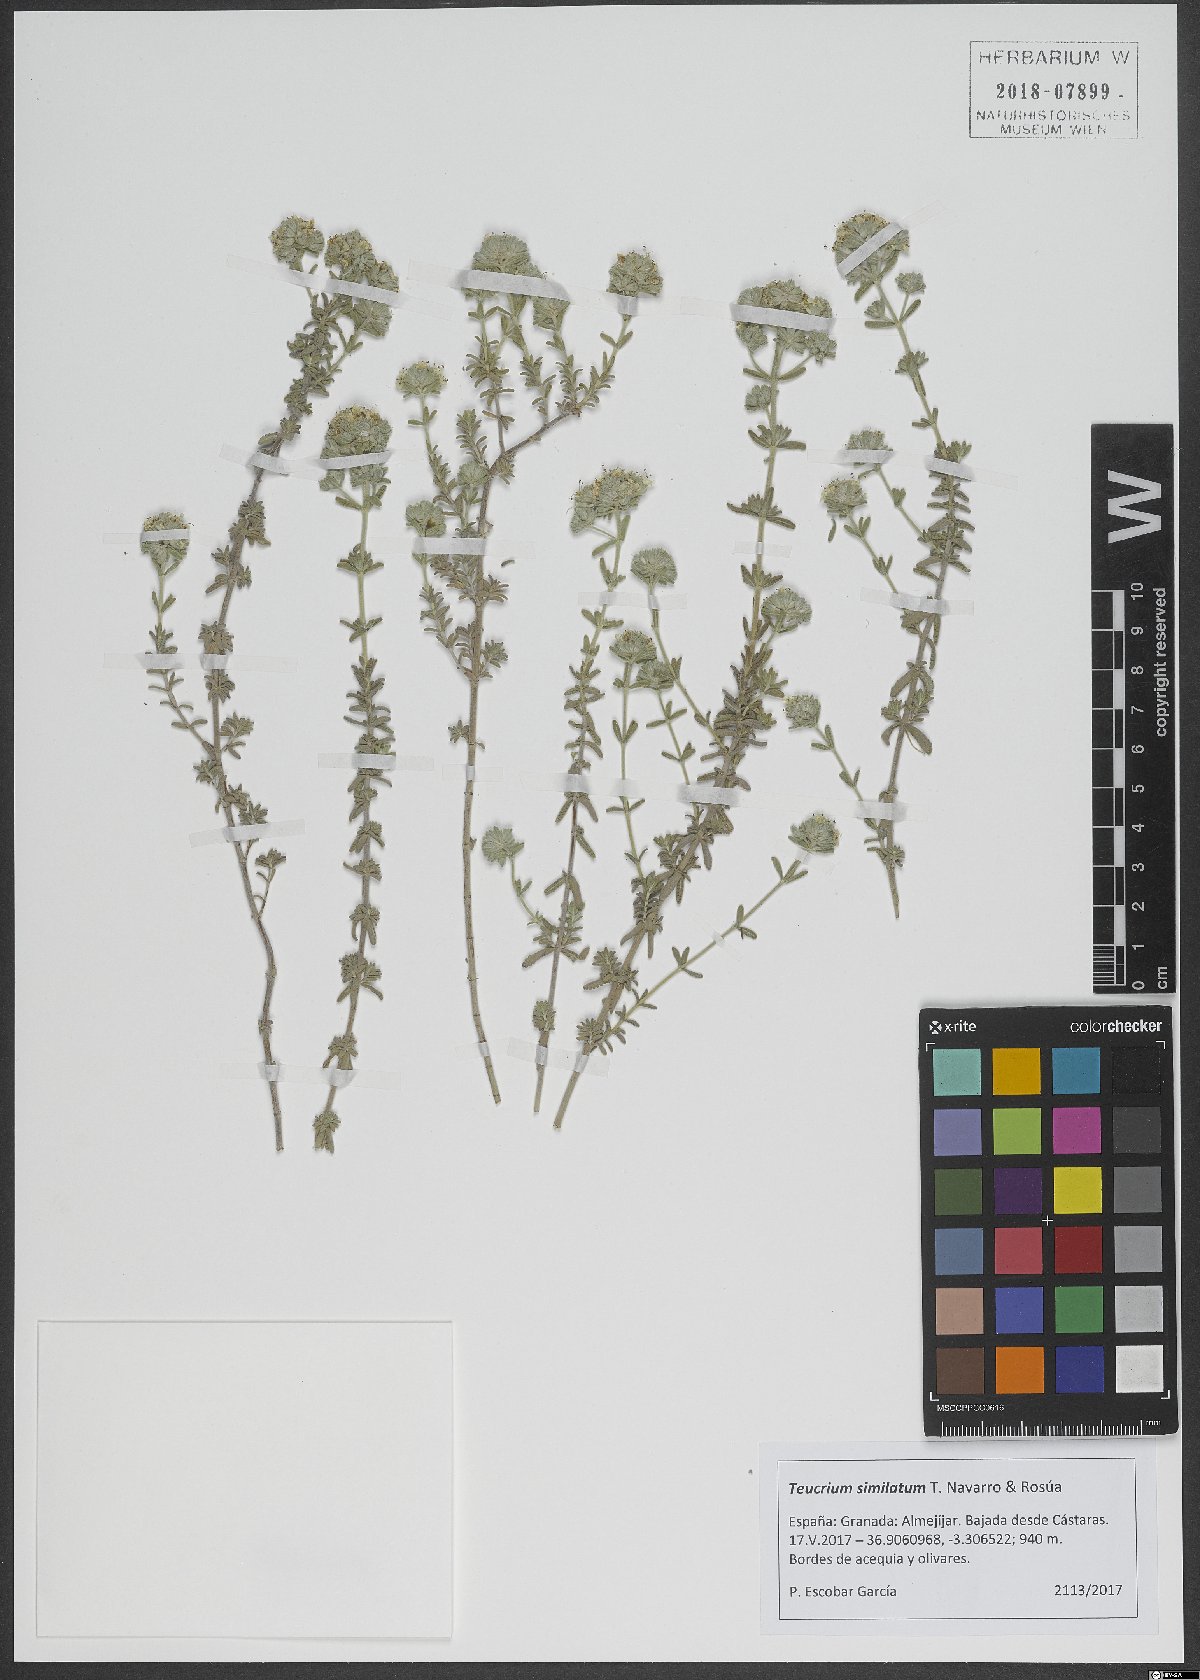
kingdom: Plantae
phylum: Tracheophyta
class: Magnoliopsida
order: Lamiales
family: Lamiaceae
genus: Teucrium
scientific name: Teucrium similatum
